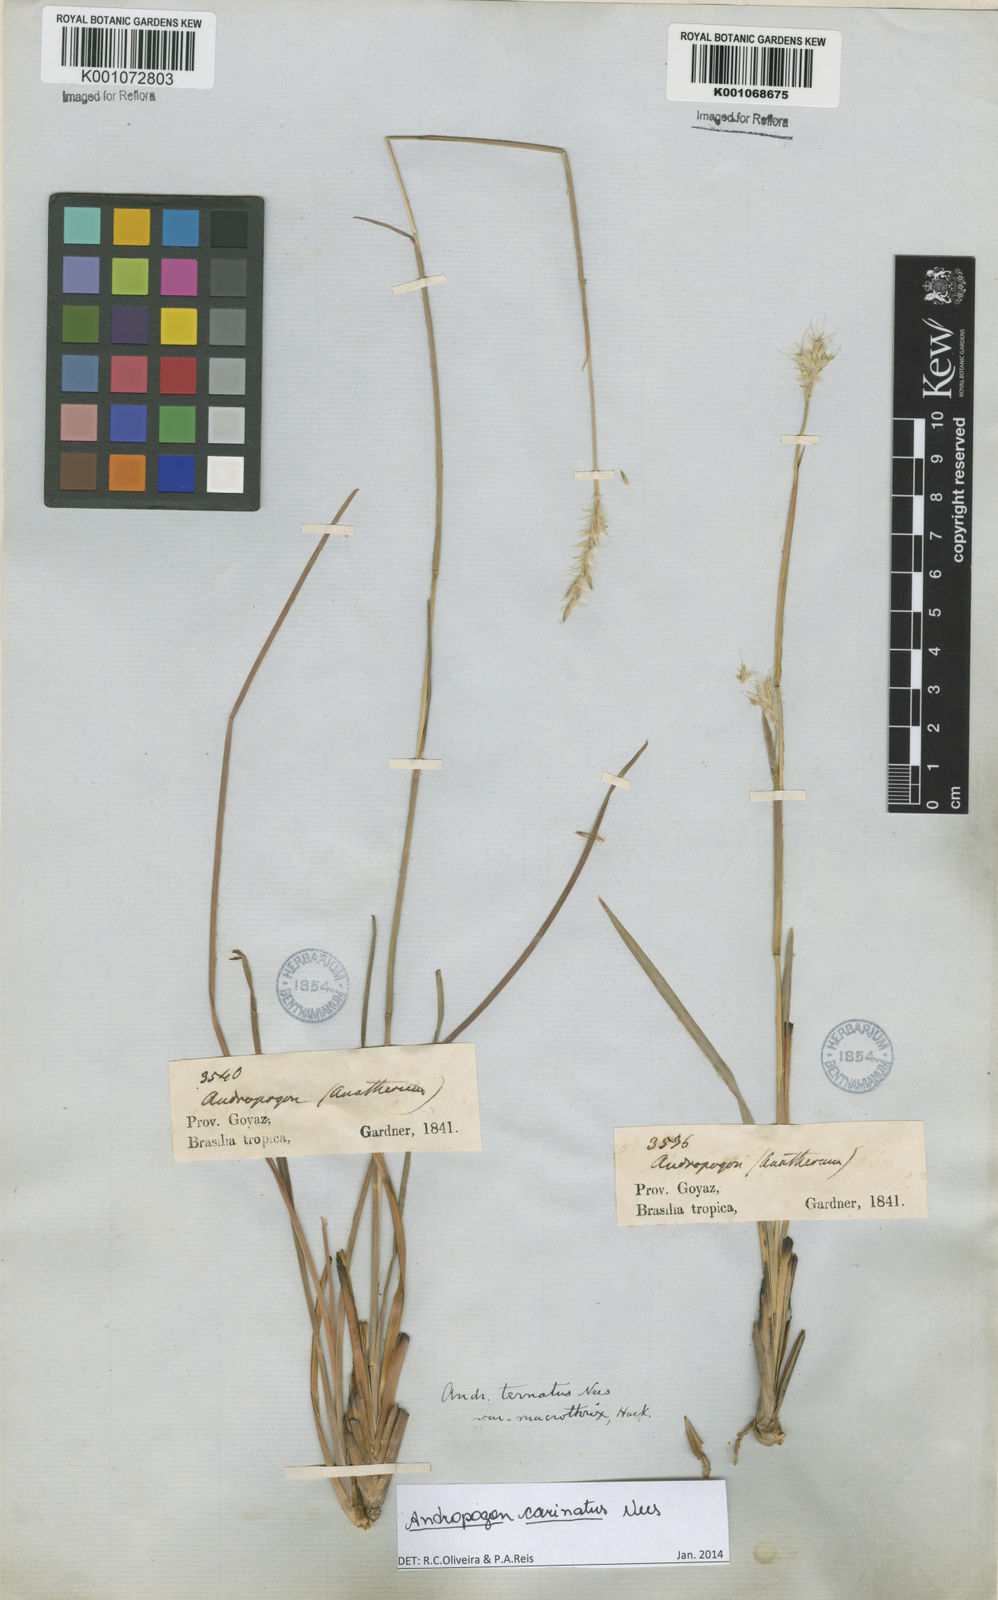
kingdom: Plantae
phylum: Tracheophyta
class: Liliopsida
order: Poales
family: Poaceae
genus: Andropogon
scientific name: Andropogon carinatus
